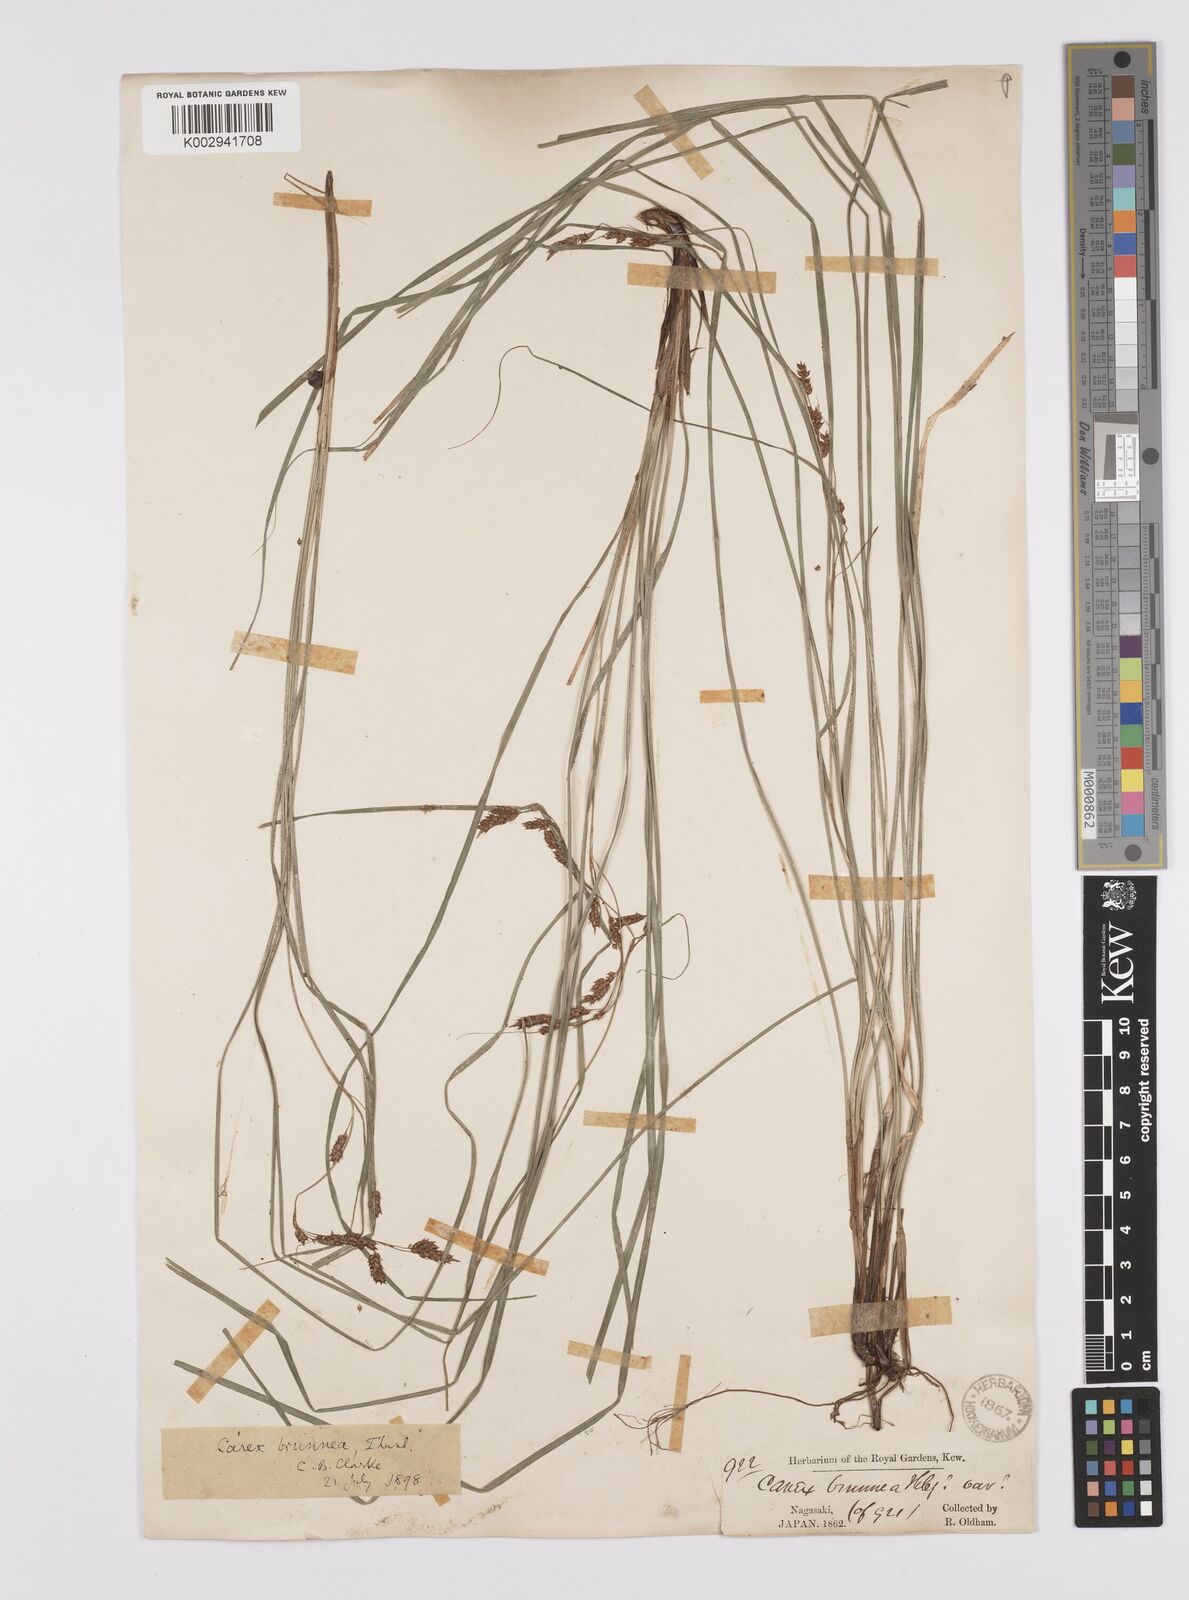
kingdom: Plantae
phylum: Tracheophyta
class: Liliopsida
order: Poales
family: Cyperaceae
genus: Carex
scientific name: Carex brunnea
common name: Greater brown sedge
